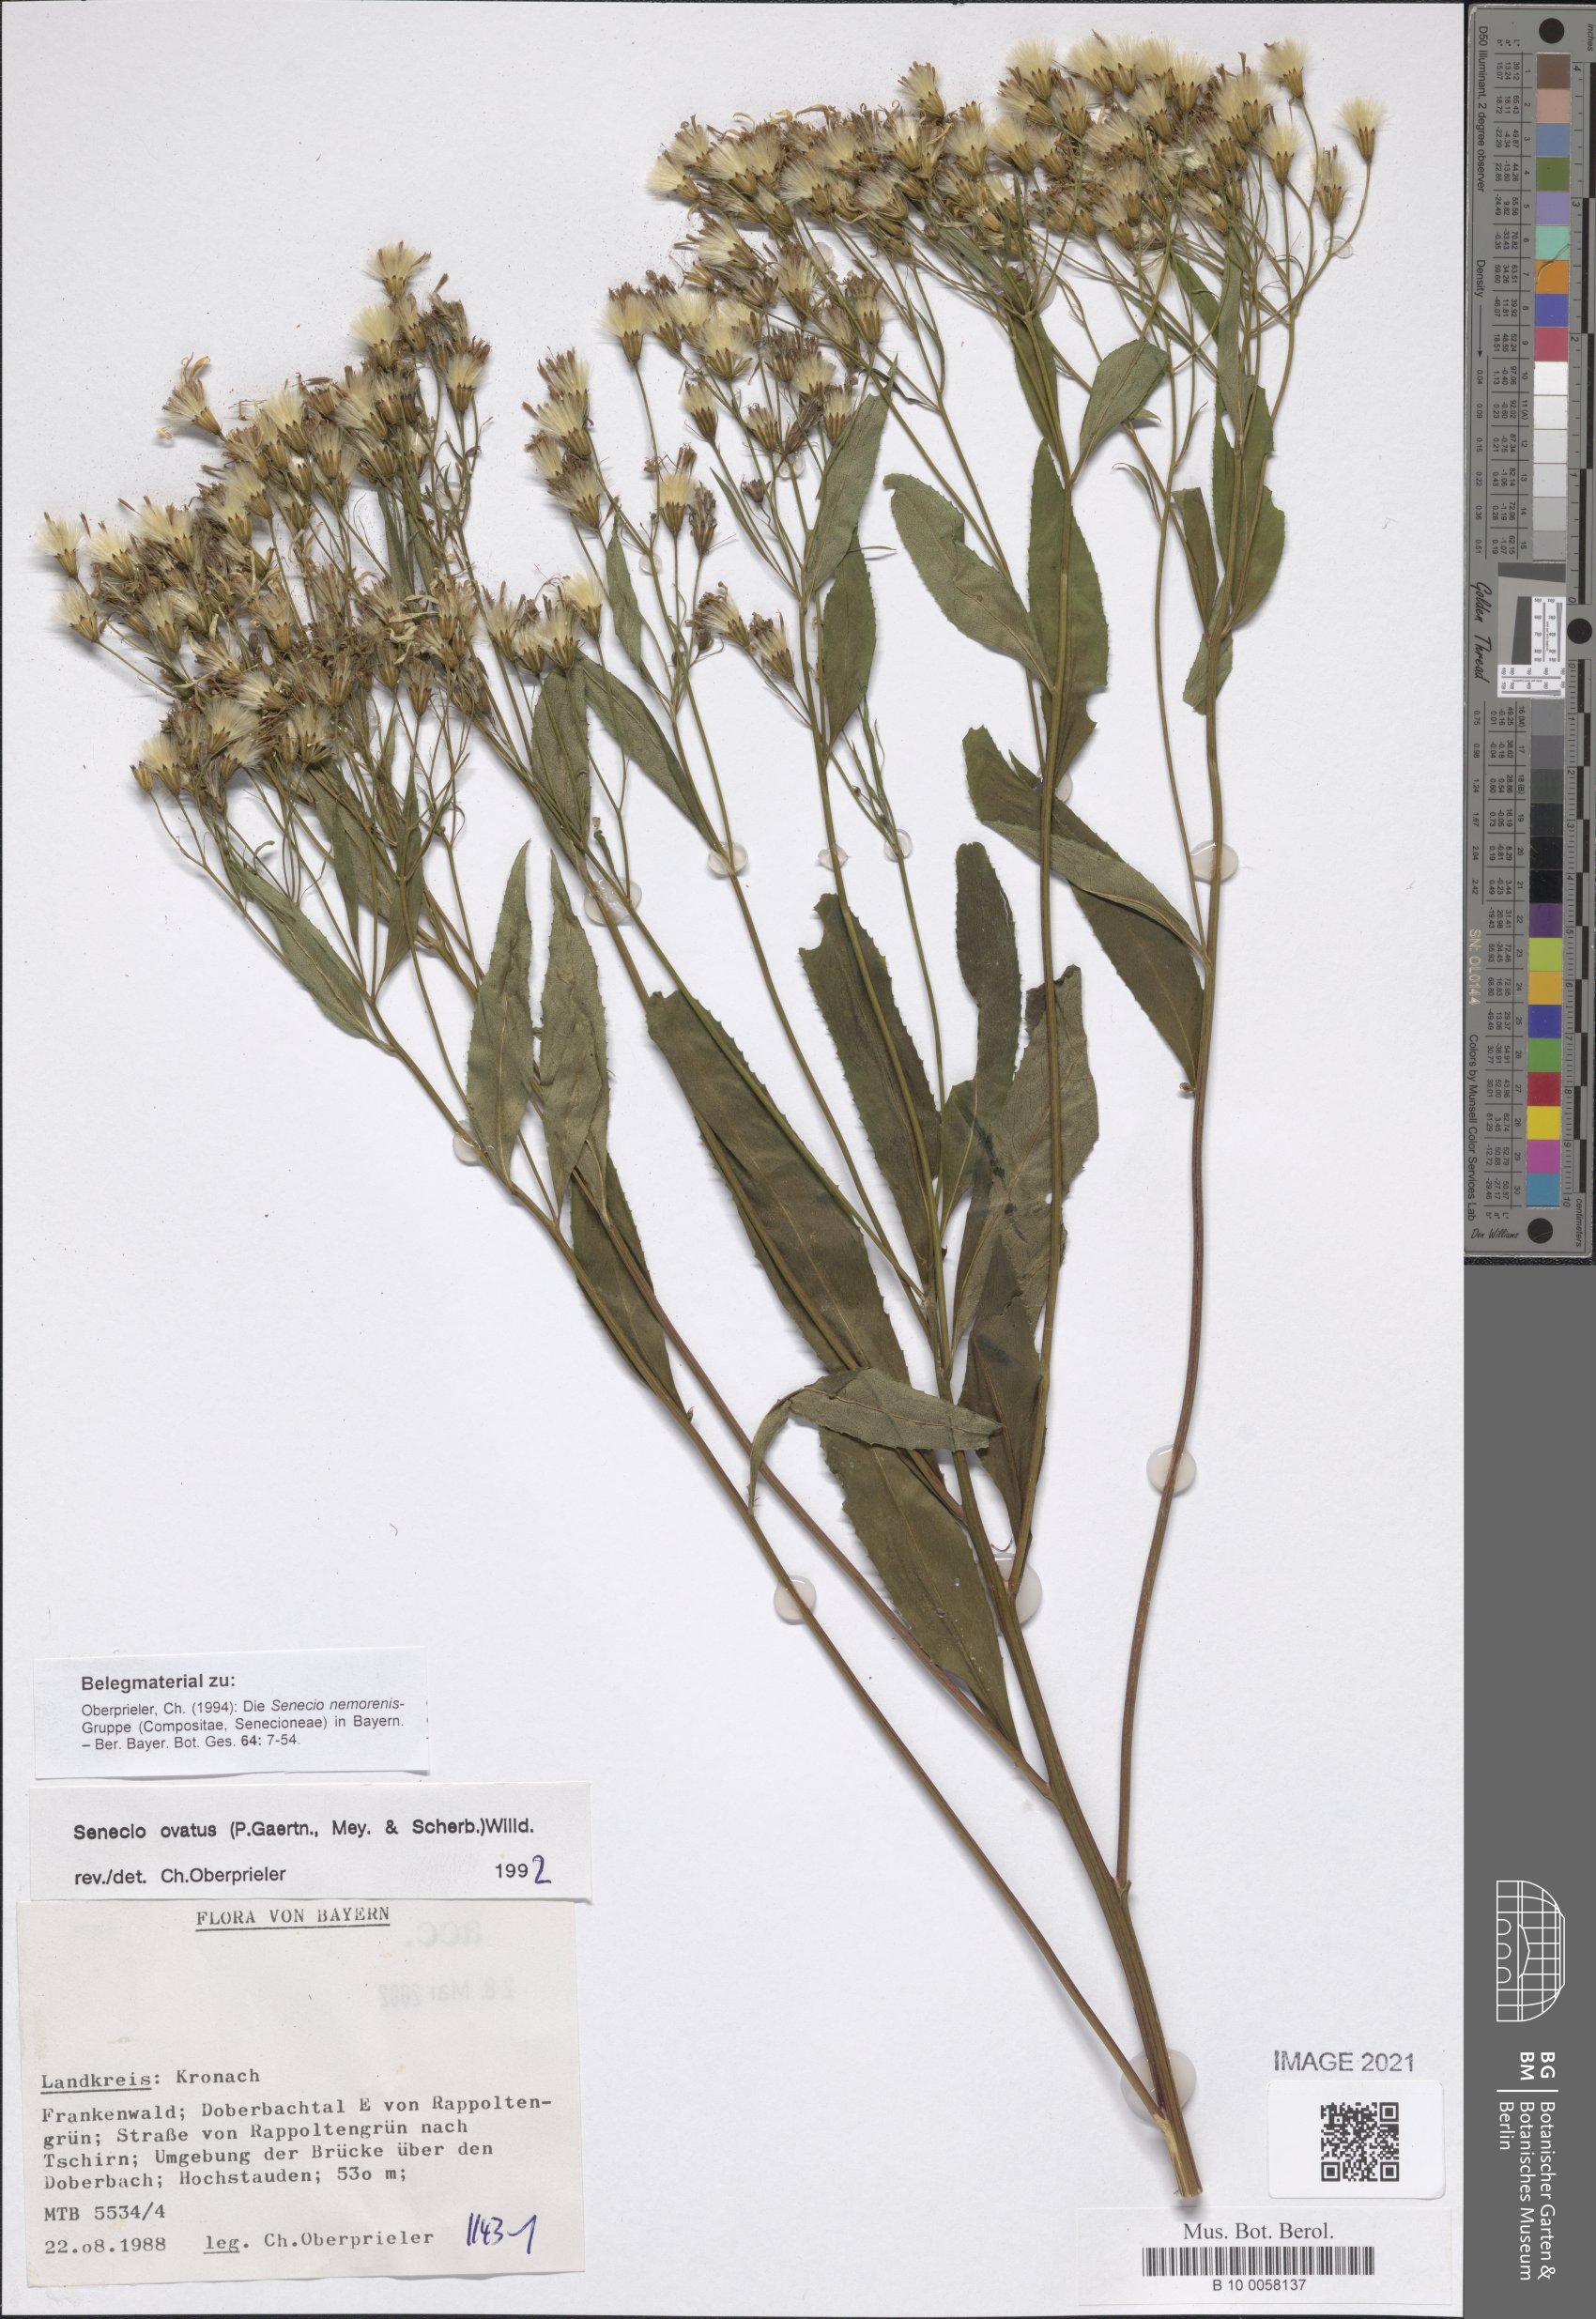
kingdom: Plantae
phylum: Tracheophyta
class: Magnoliopsida
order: Asterales
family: Asteraceae
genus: Senecio
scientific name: Senecio ovatus
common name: Wood ragwort
